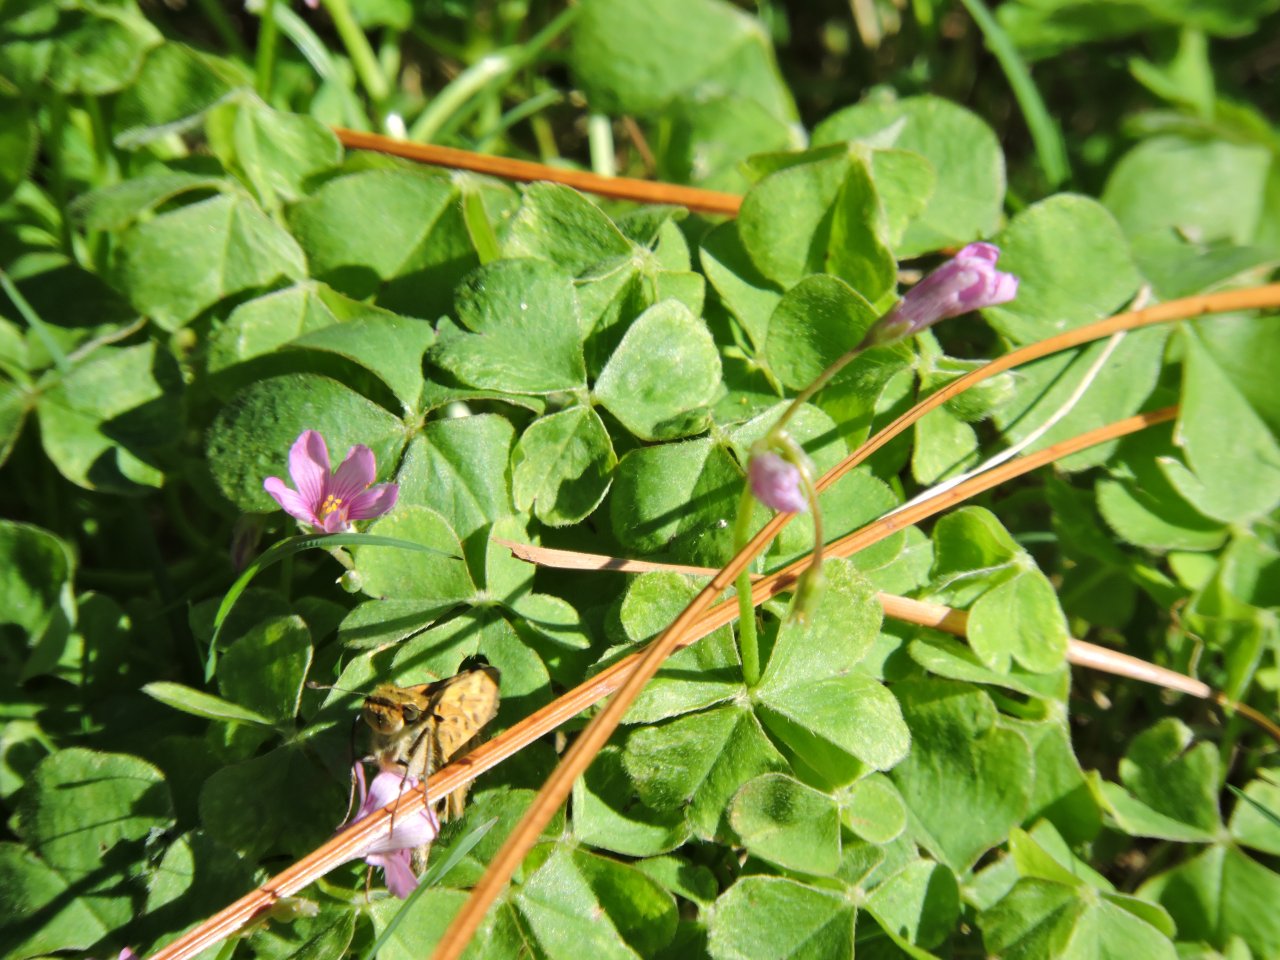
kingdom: Animalia
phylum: Arthropoda
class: Insecta
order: Lepidoptera
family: Hesperiidae
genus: Hylephila
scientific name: Hylephila phyleus
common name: Fiery Skipper
